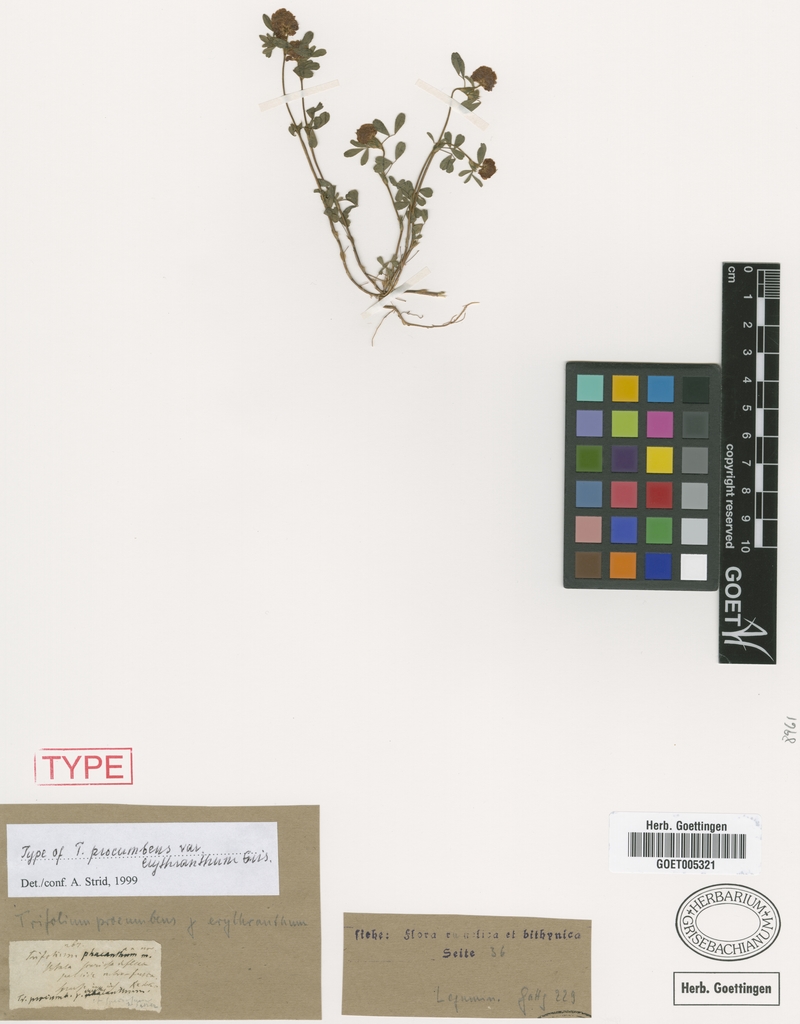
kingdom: Plantae
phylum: Tracheophyta
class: Magnoliopsida
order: Fabales
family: Fabaceae
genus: Trifolium
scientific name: Trifolium campestre
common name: Field clover
